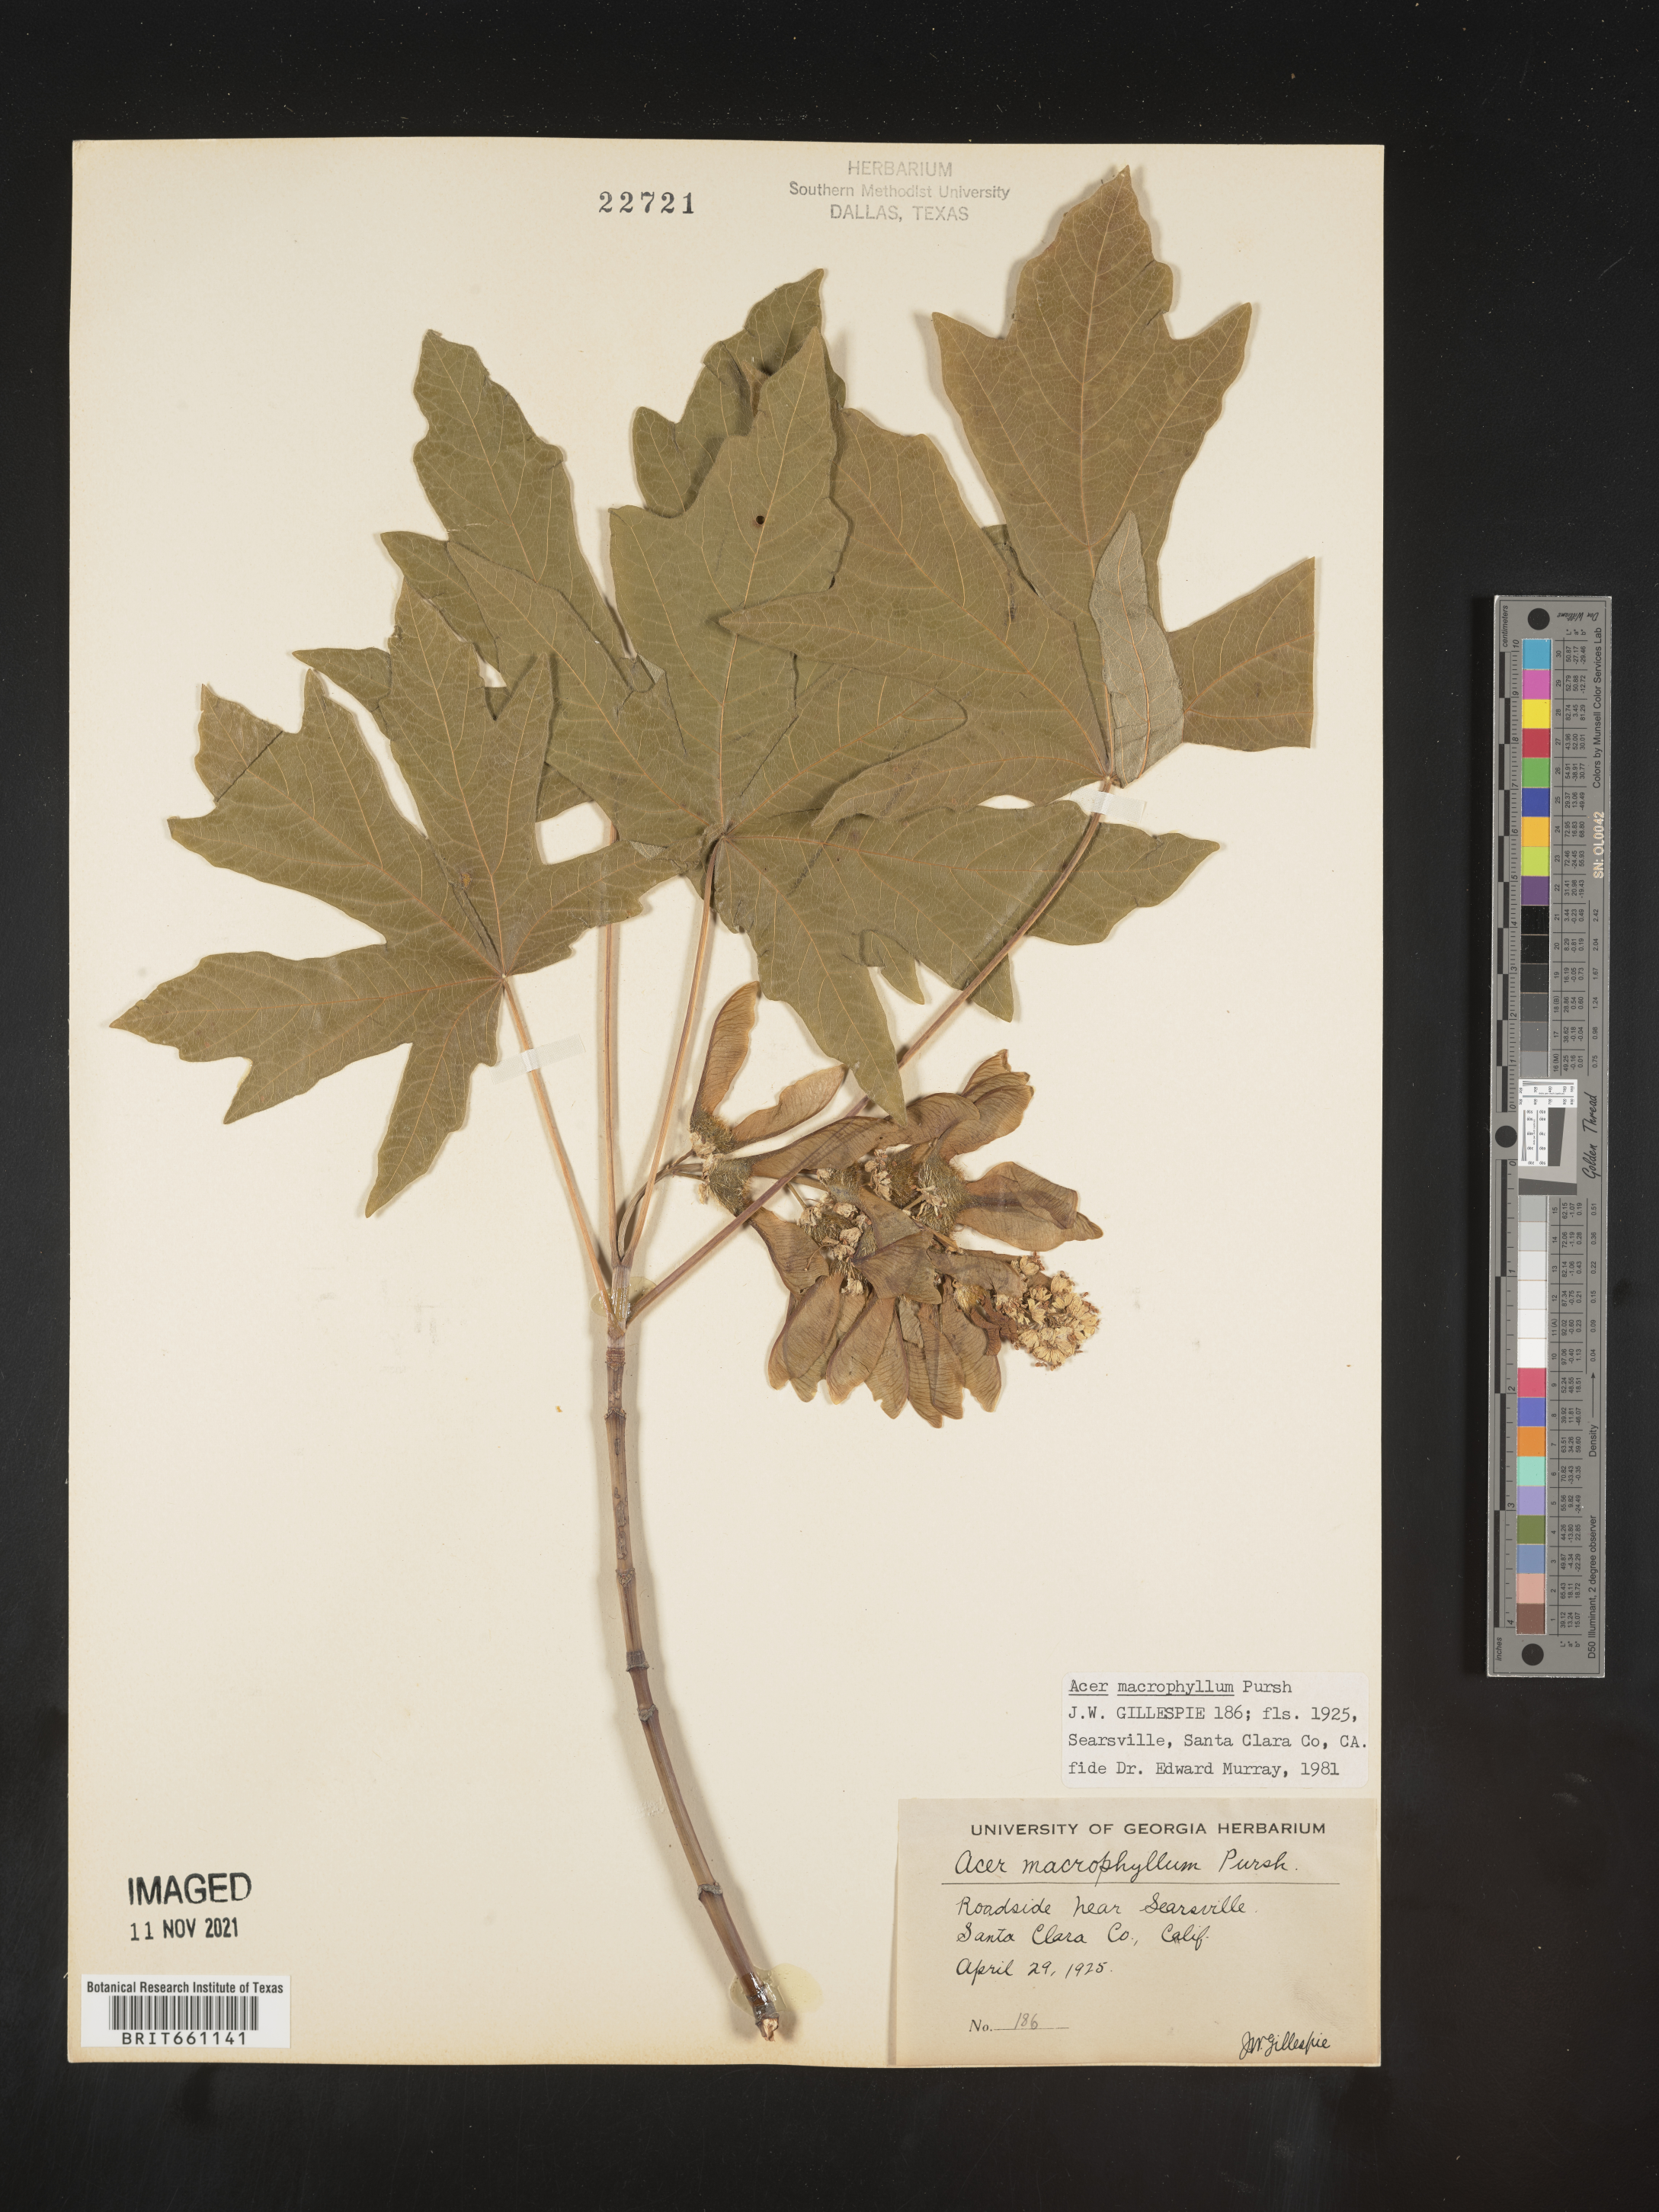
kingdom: Plantae
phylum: Tracheophyta
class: Magnoliopsida
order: Sapindales
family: Sapindaceae
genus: Acer
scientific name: Acer macrophyllum
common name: Oregon maple
